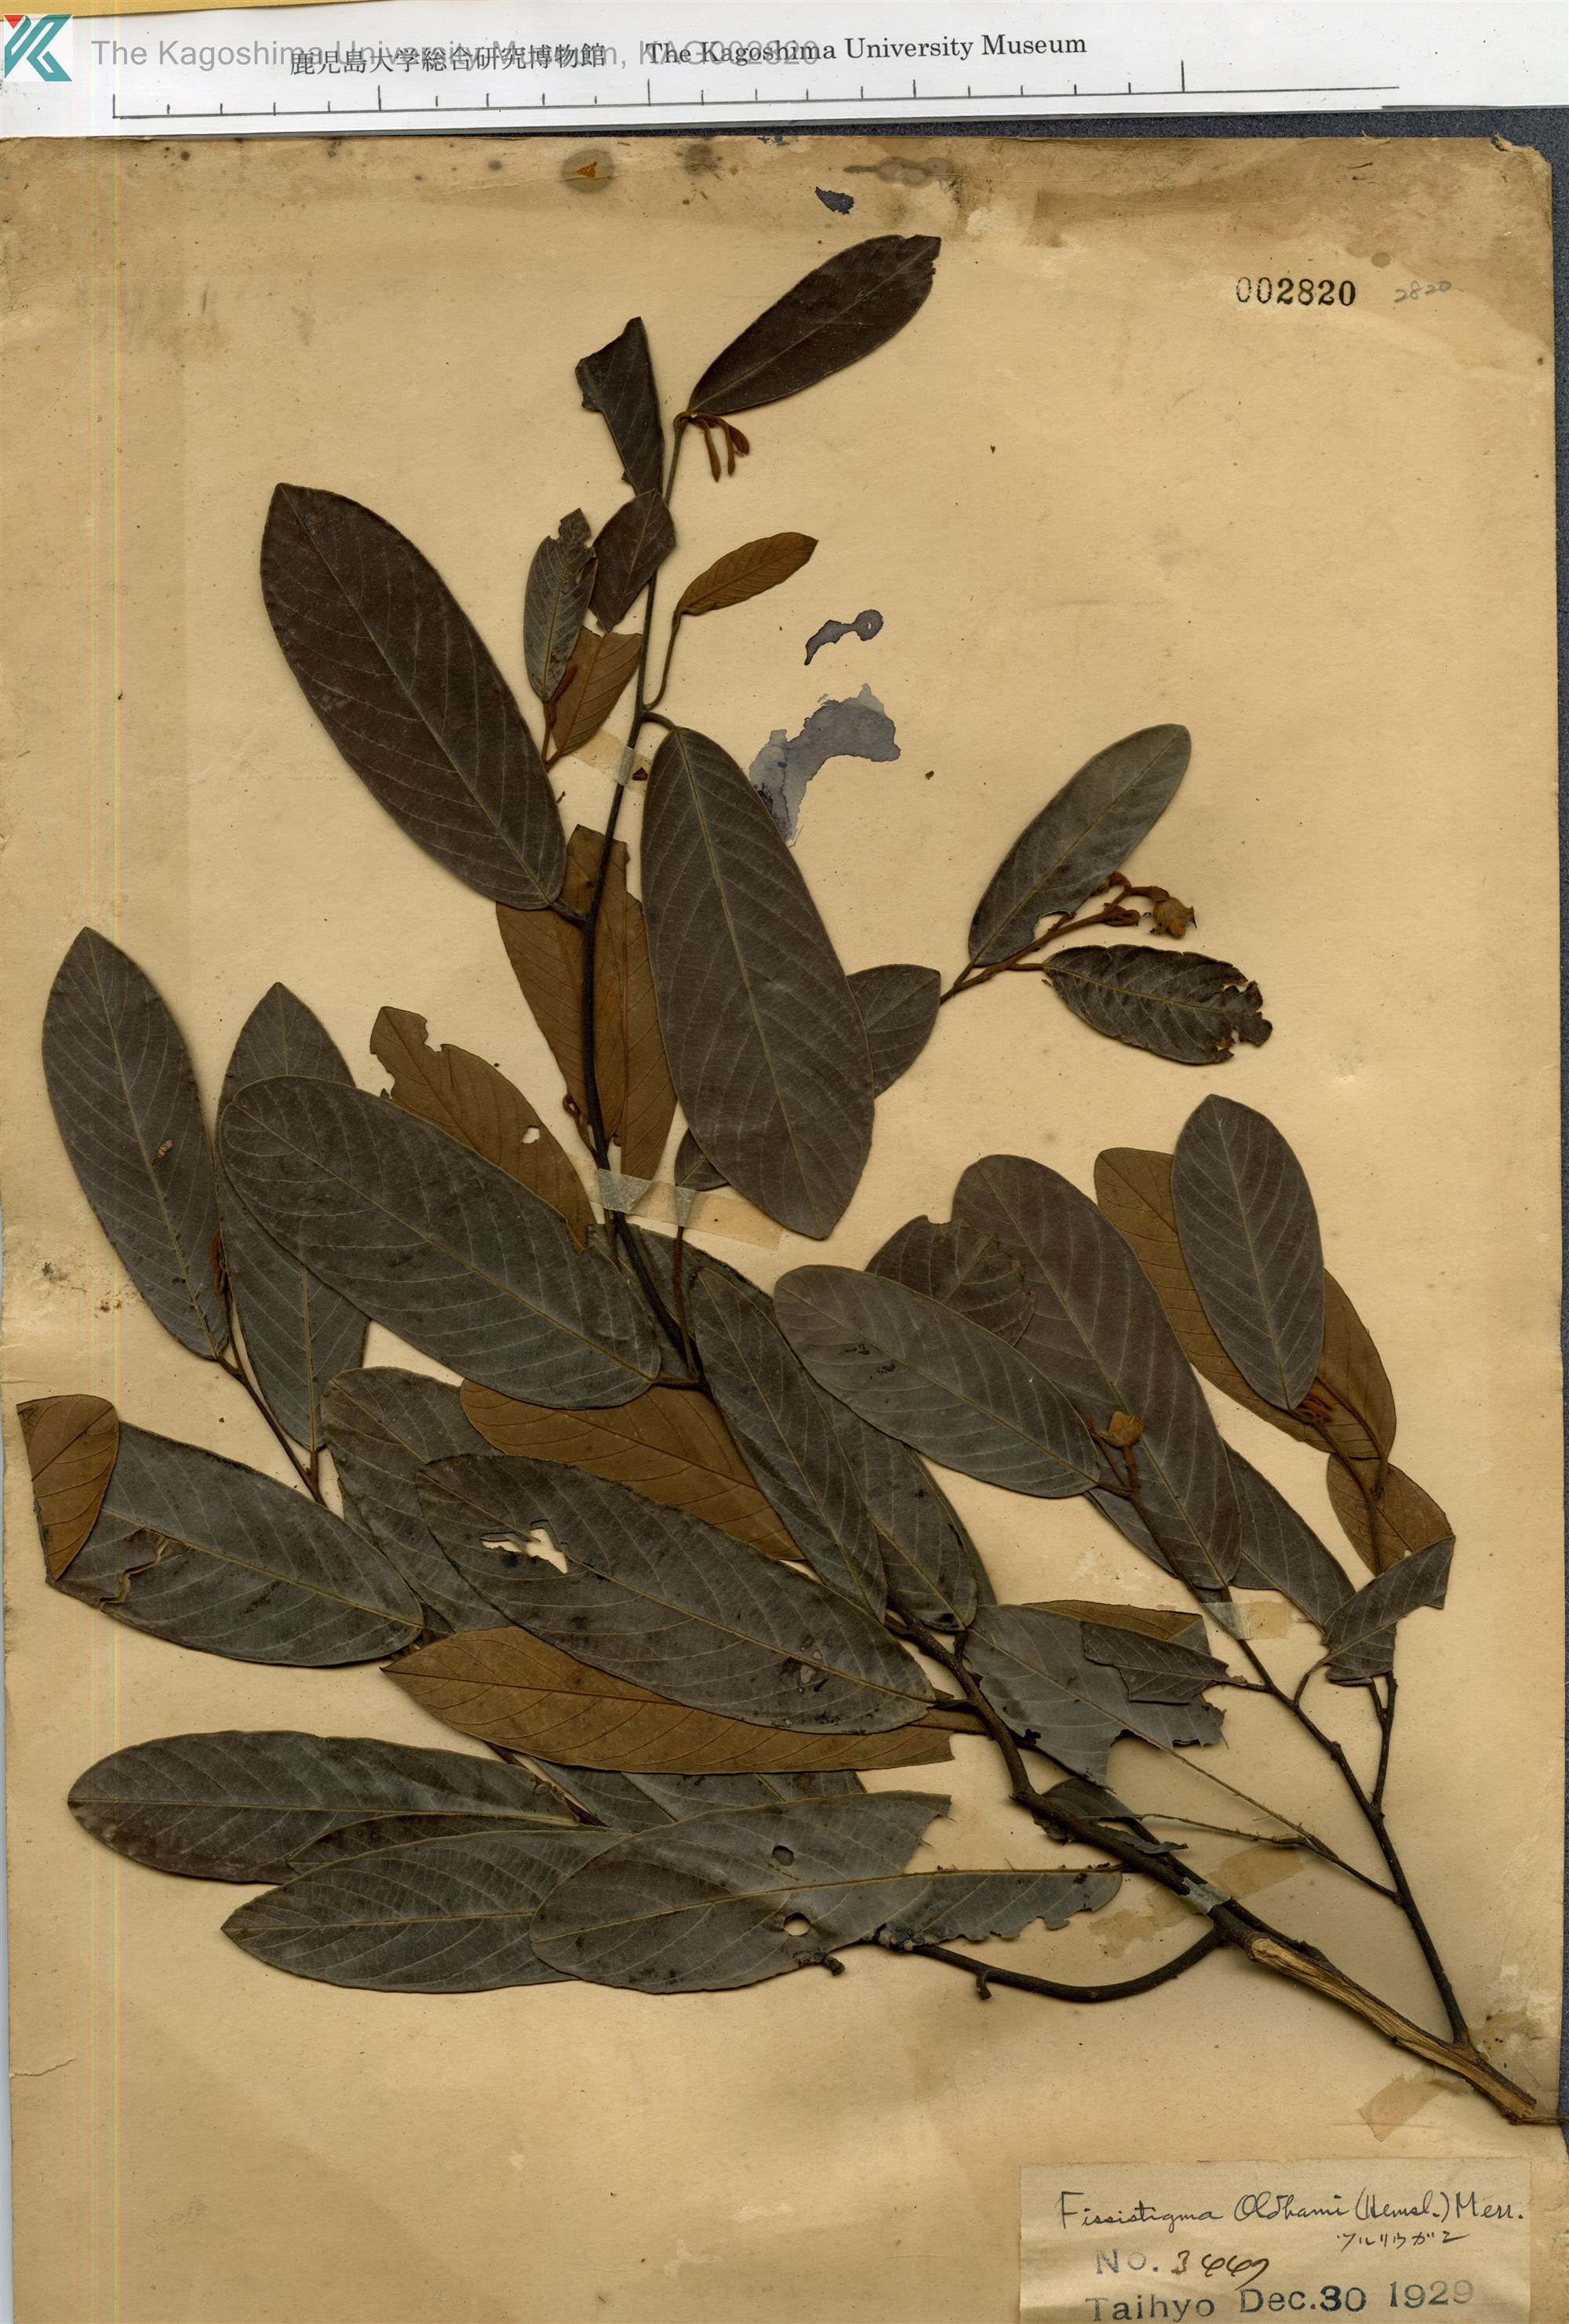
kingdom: Plantae
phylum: Tracheophyta
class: Magnoliopsida
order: Magnoliales
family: Annonaceae
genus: Fissistigma
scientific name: Fissistigma oldhamii
